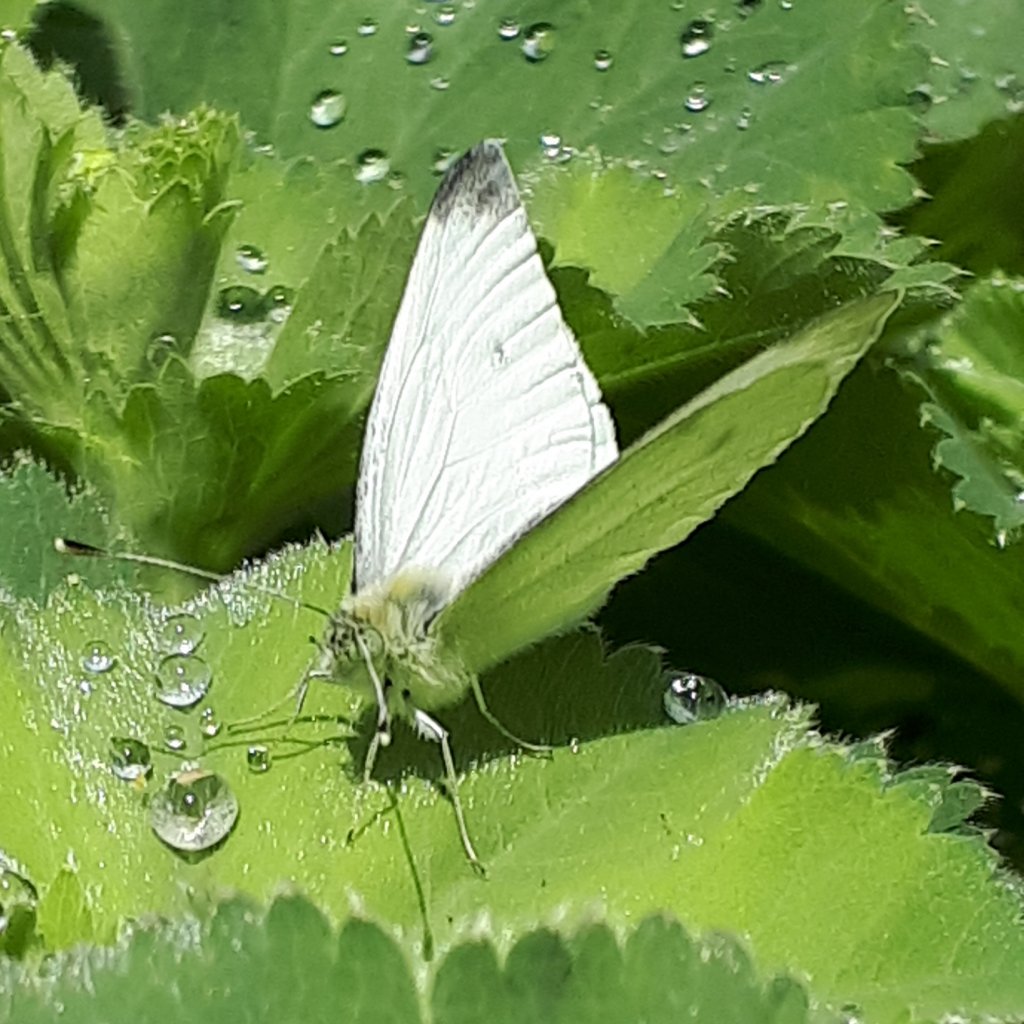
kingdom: Animalia
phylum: Arthropoda
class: Insecta
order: Lepidoptera
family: Pieridae
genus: Pieris
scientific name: Pieris rapae
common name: Cabbage White
